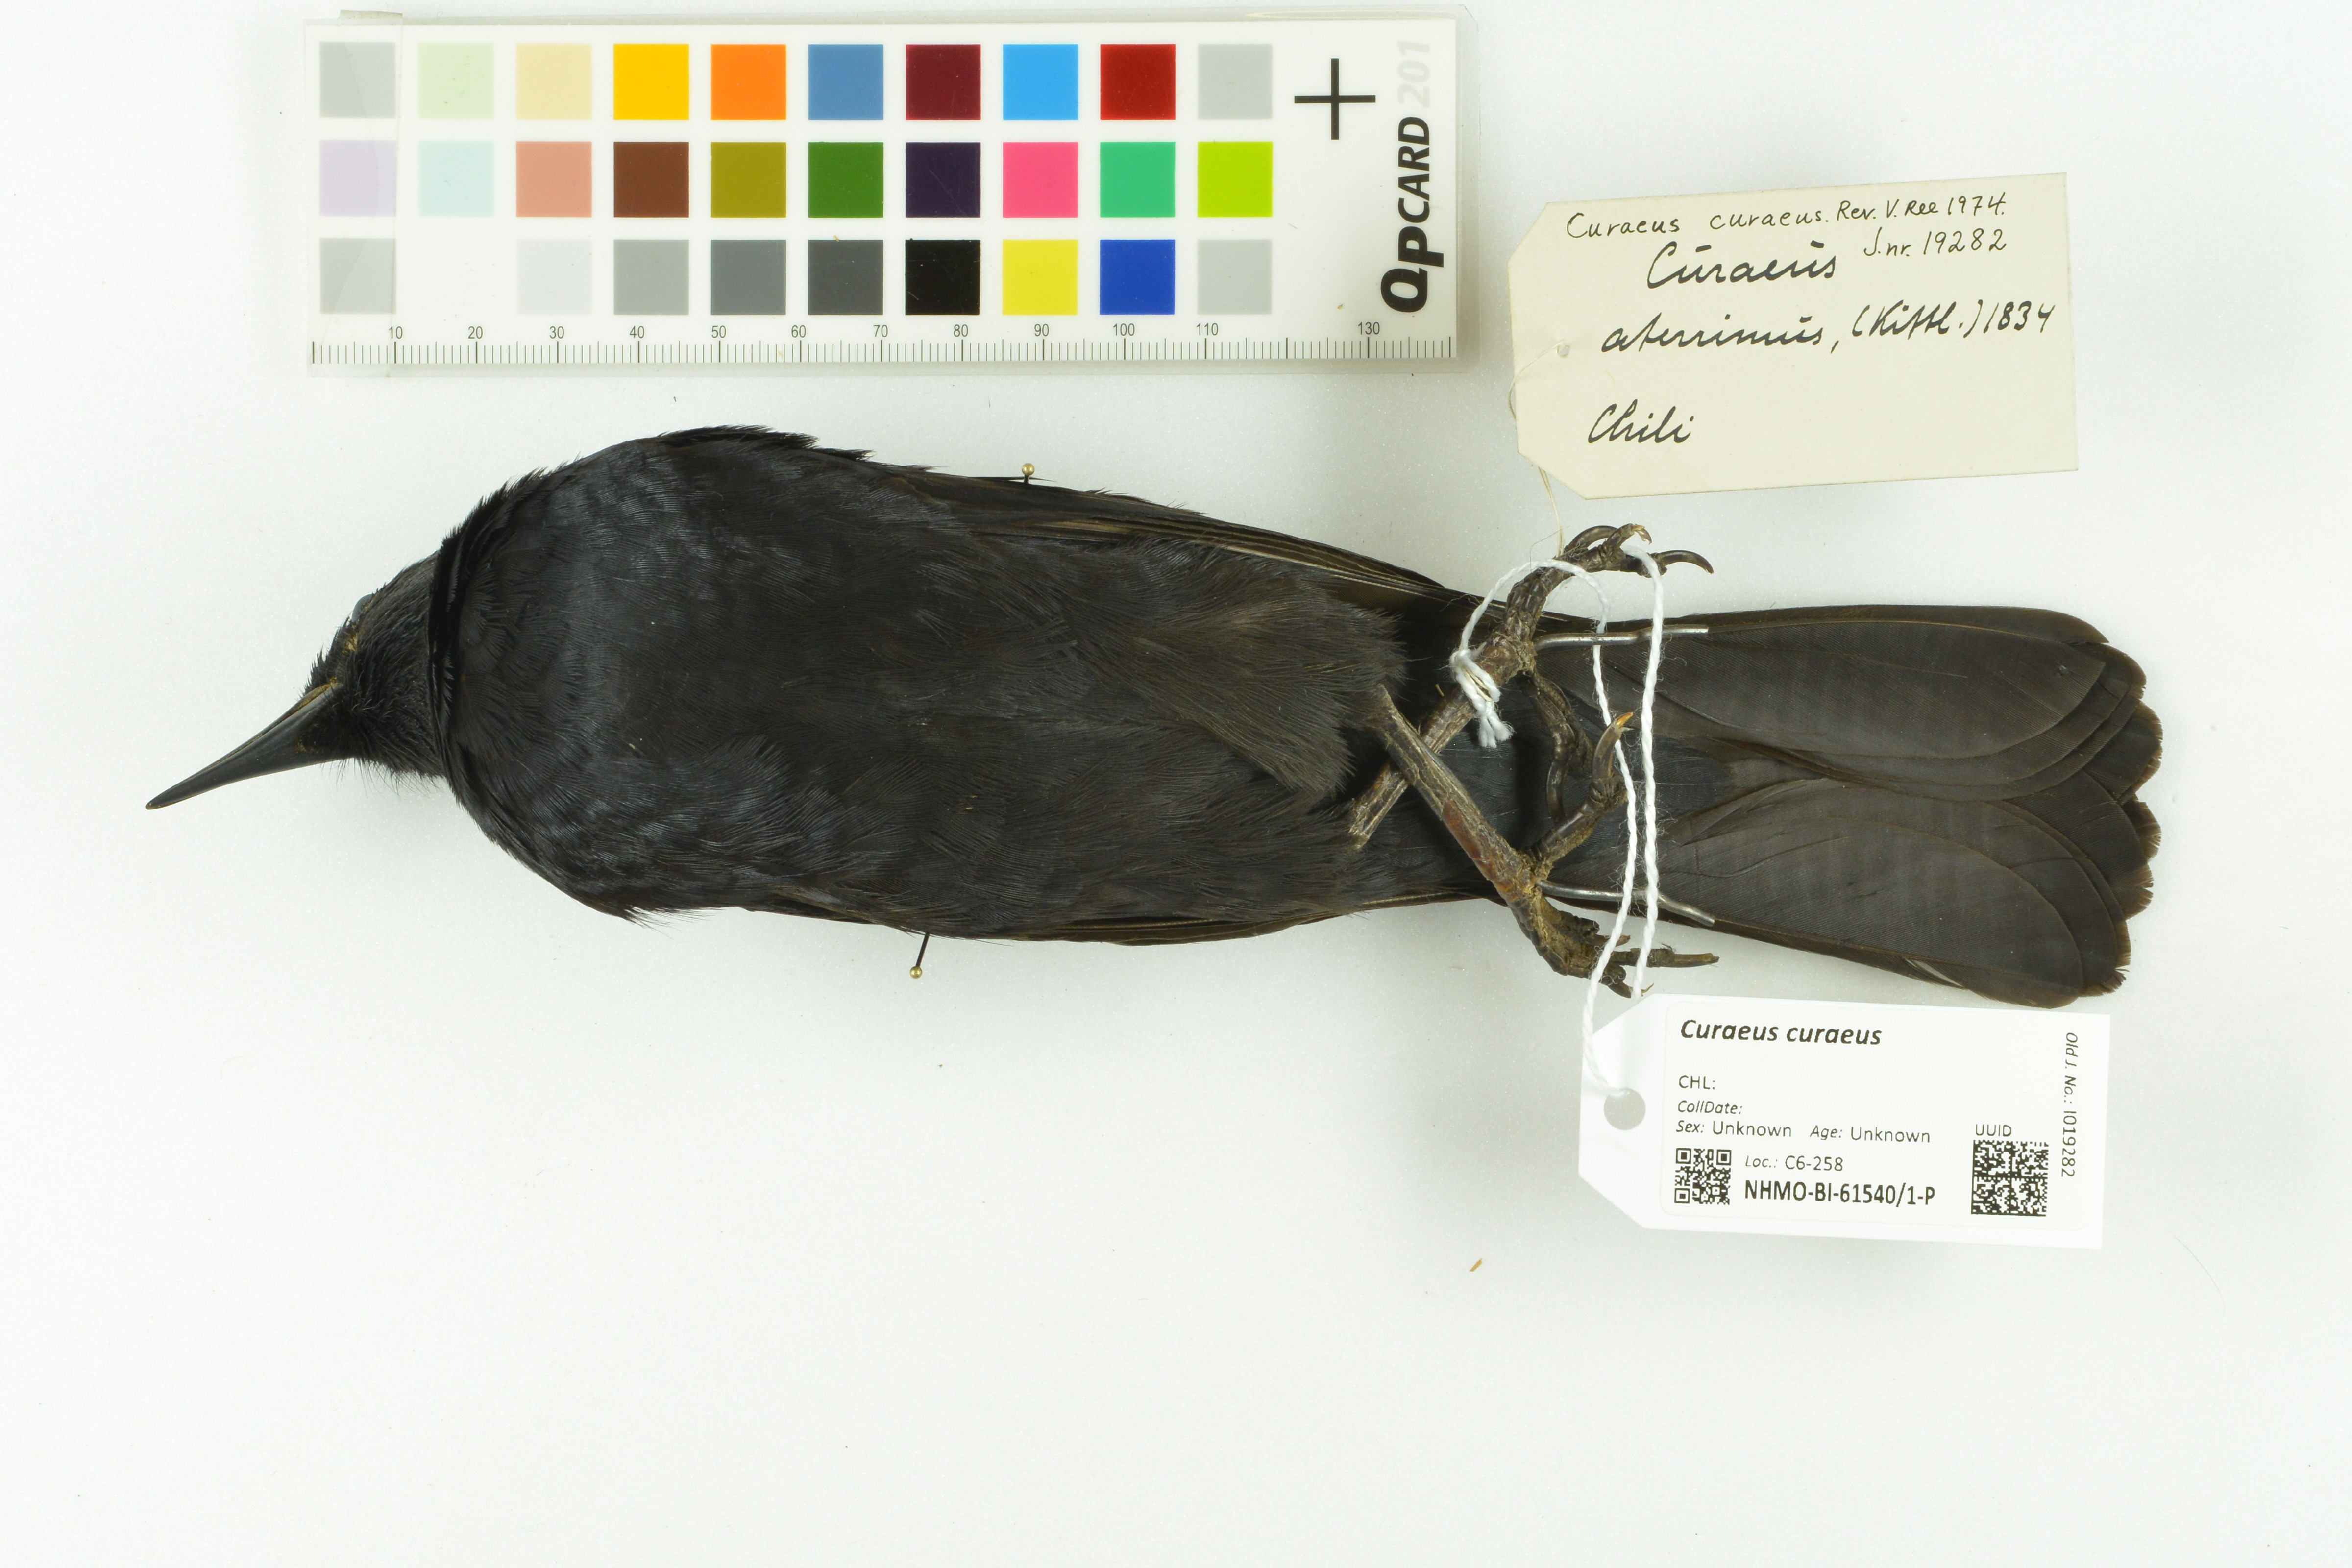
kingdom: Animalia
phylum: Chordata
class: Aves
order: Passeriformes
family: Icteridae
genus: Curaeus
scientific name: Curaeus curaeus
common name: Austral blackbird
